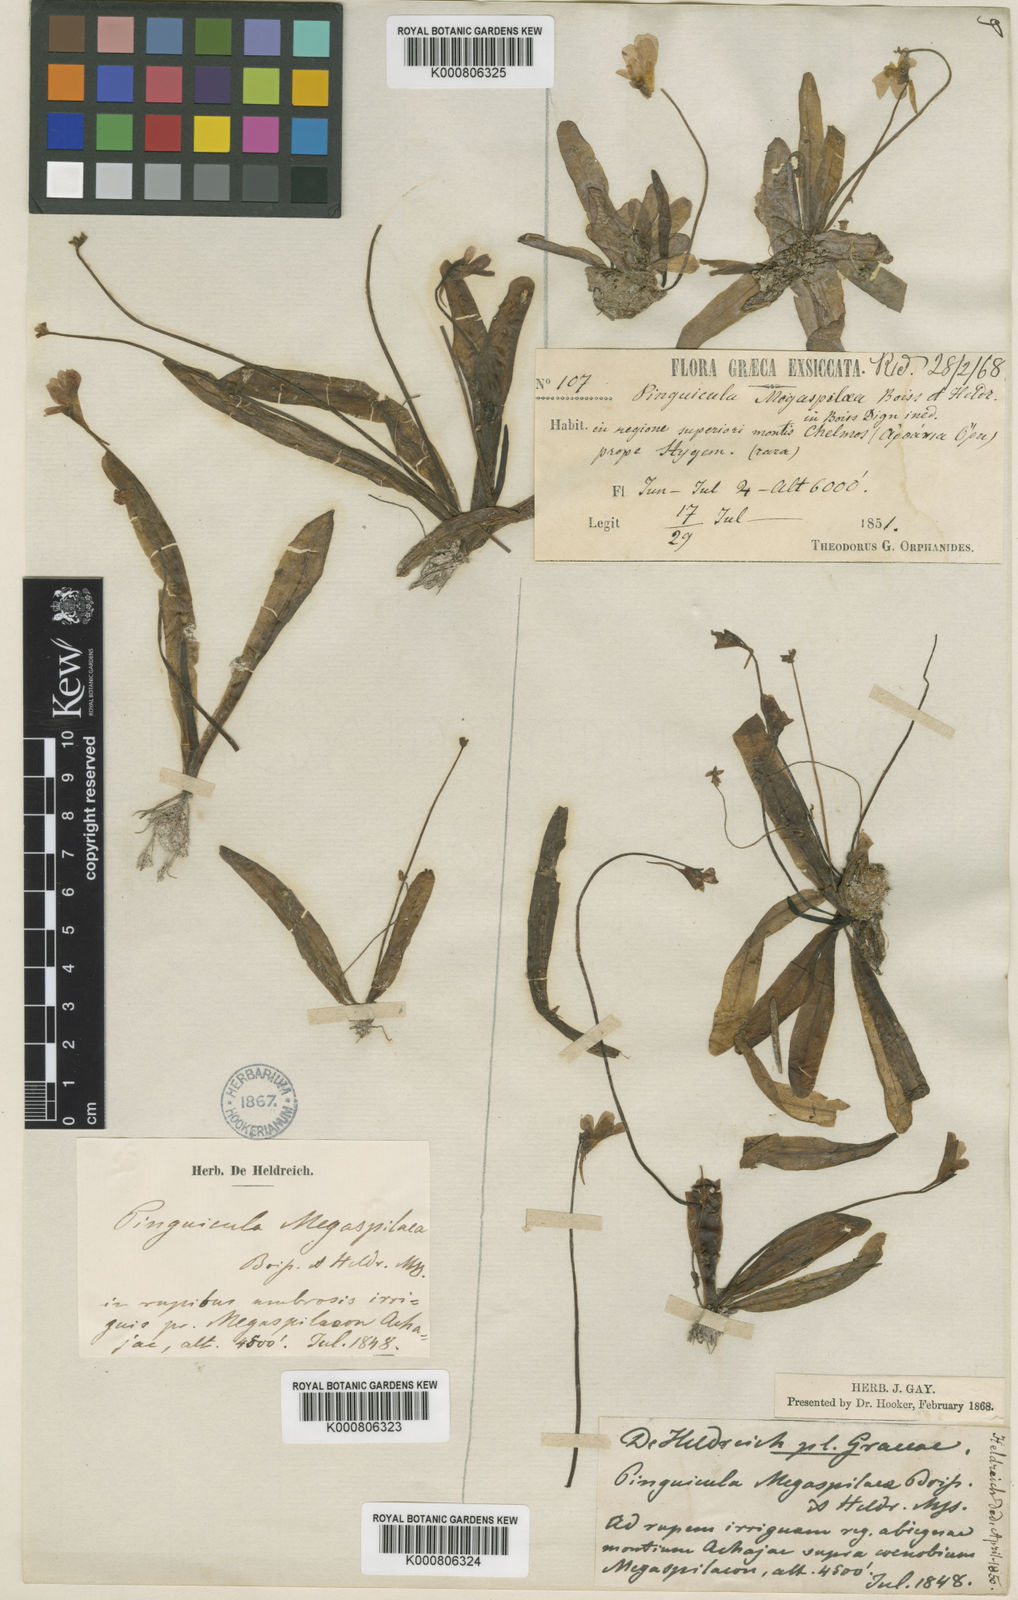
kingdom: Plantae
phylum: Tracheophyta
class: Magnoliopsida
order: Lamiales
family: Lentibulariaceae
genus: Pinguicula
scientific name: Pinguicula crystallina
